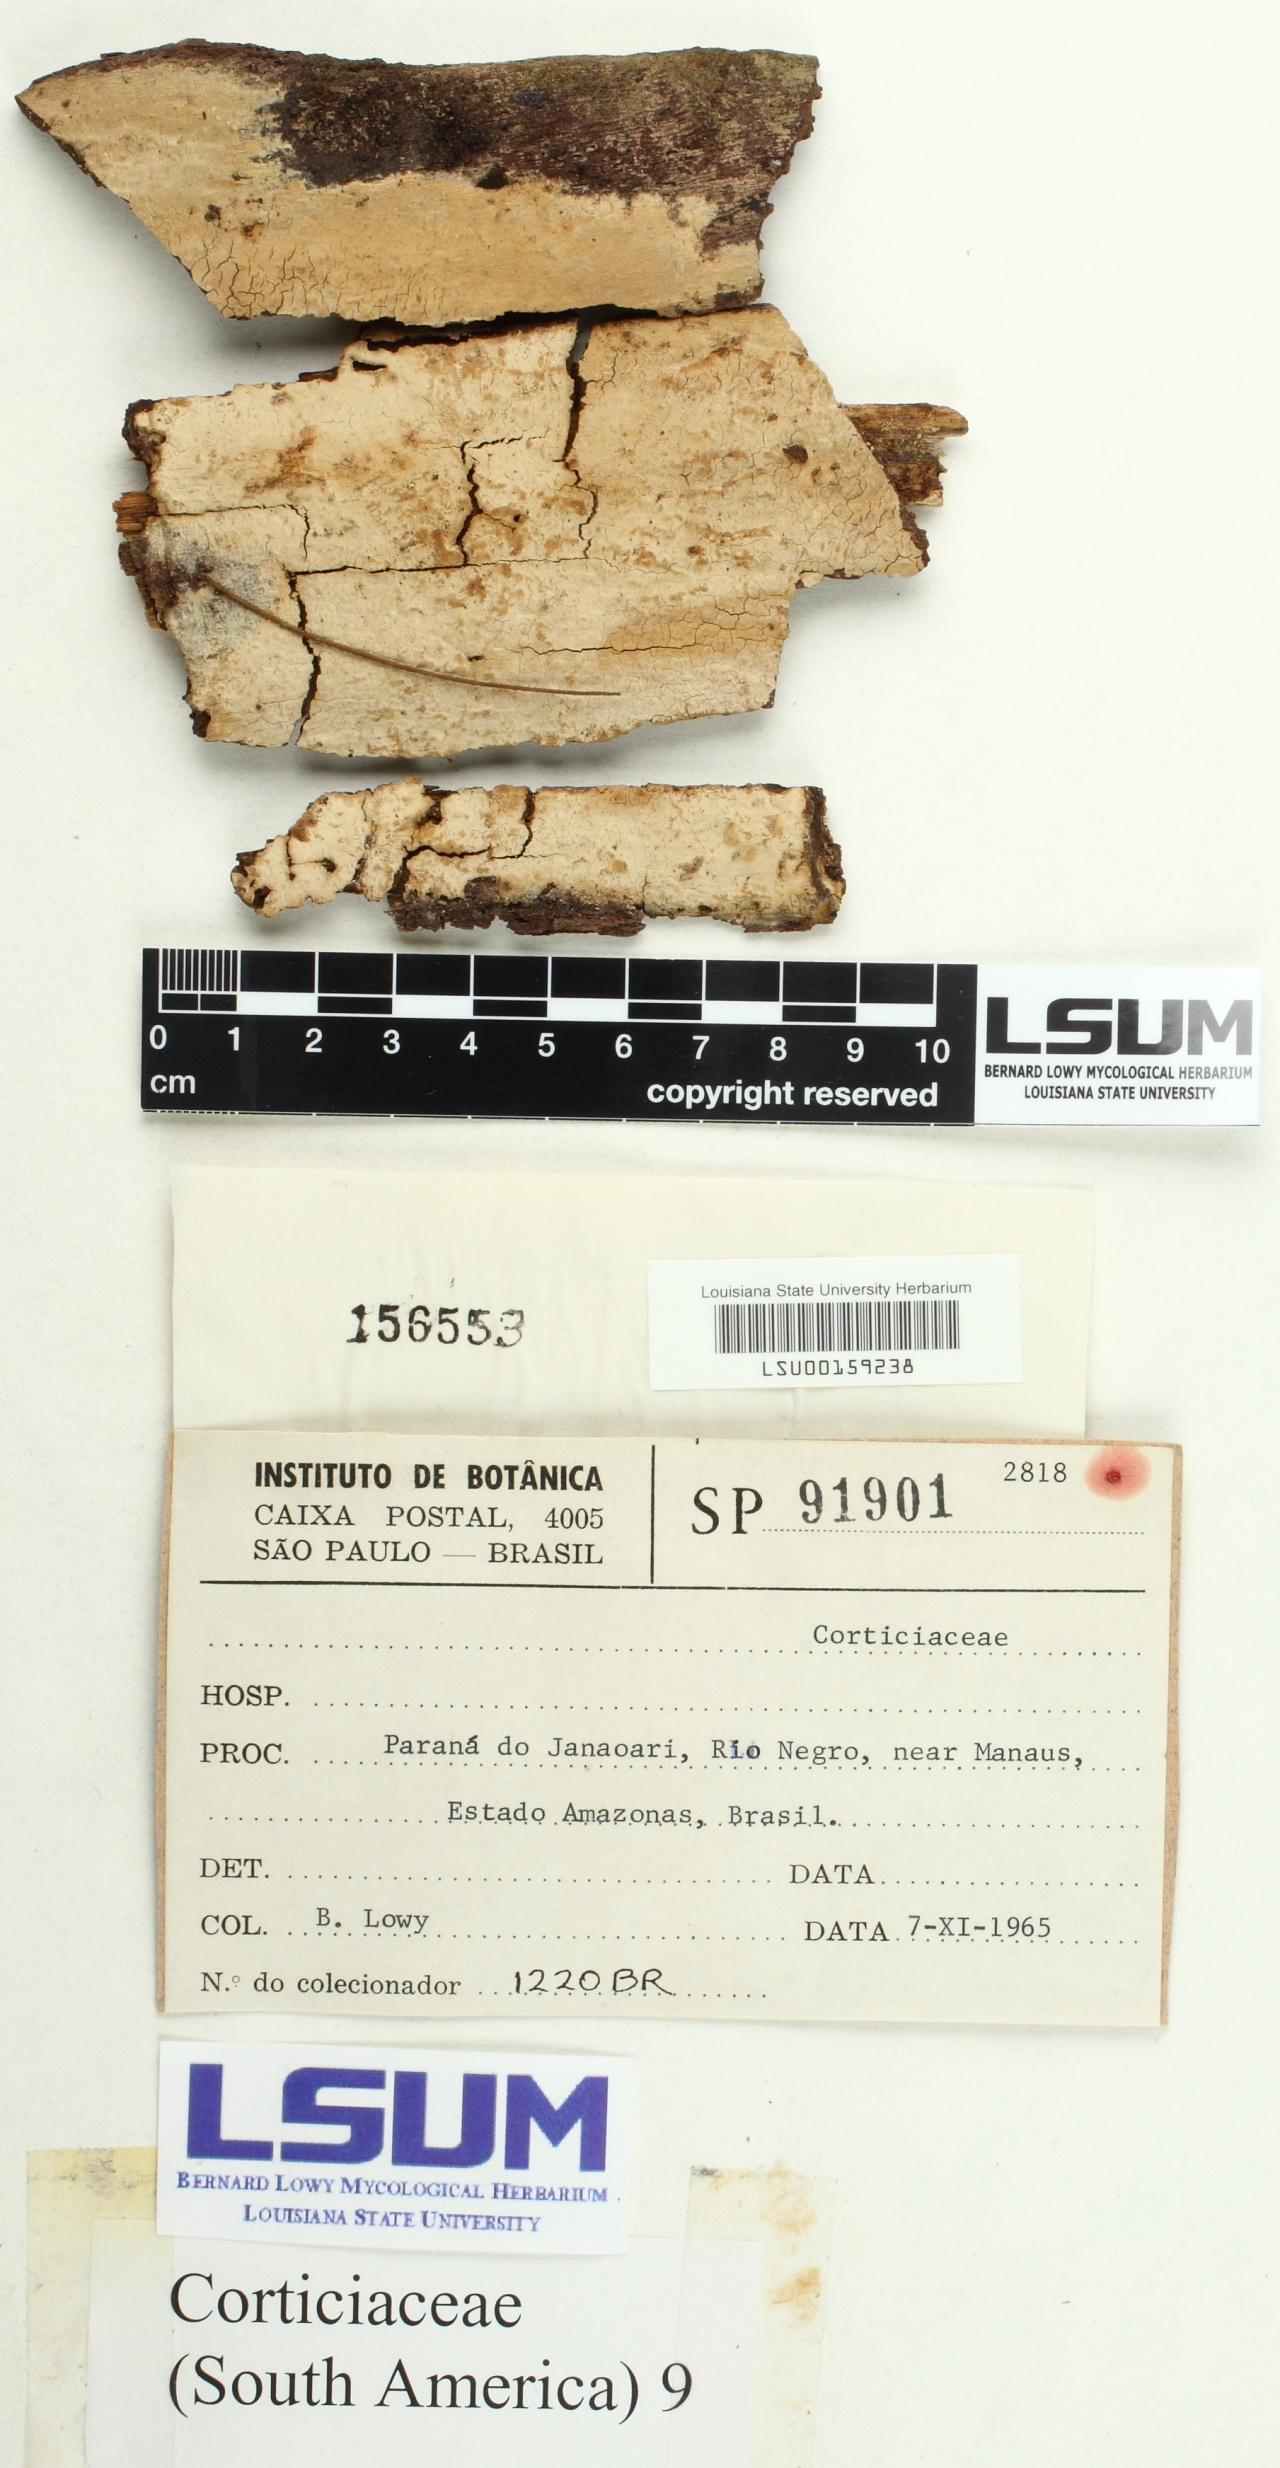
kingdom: Fungi
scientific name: Fungi
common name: Fungi
